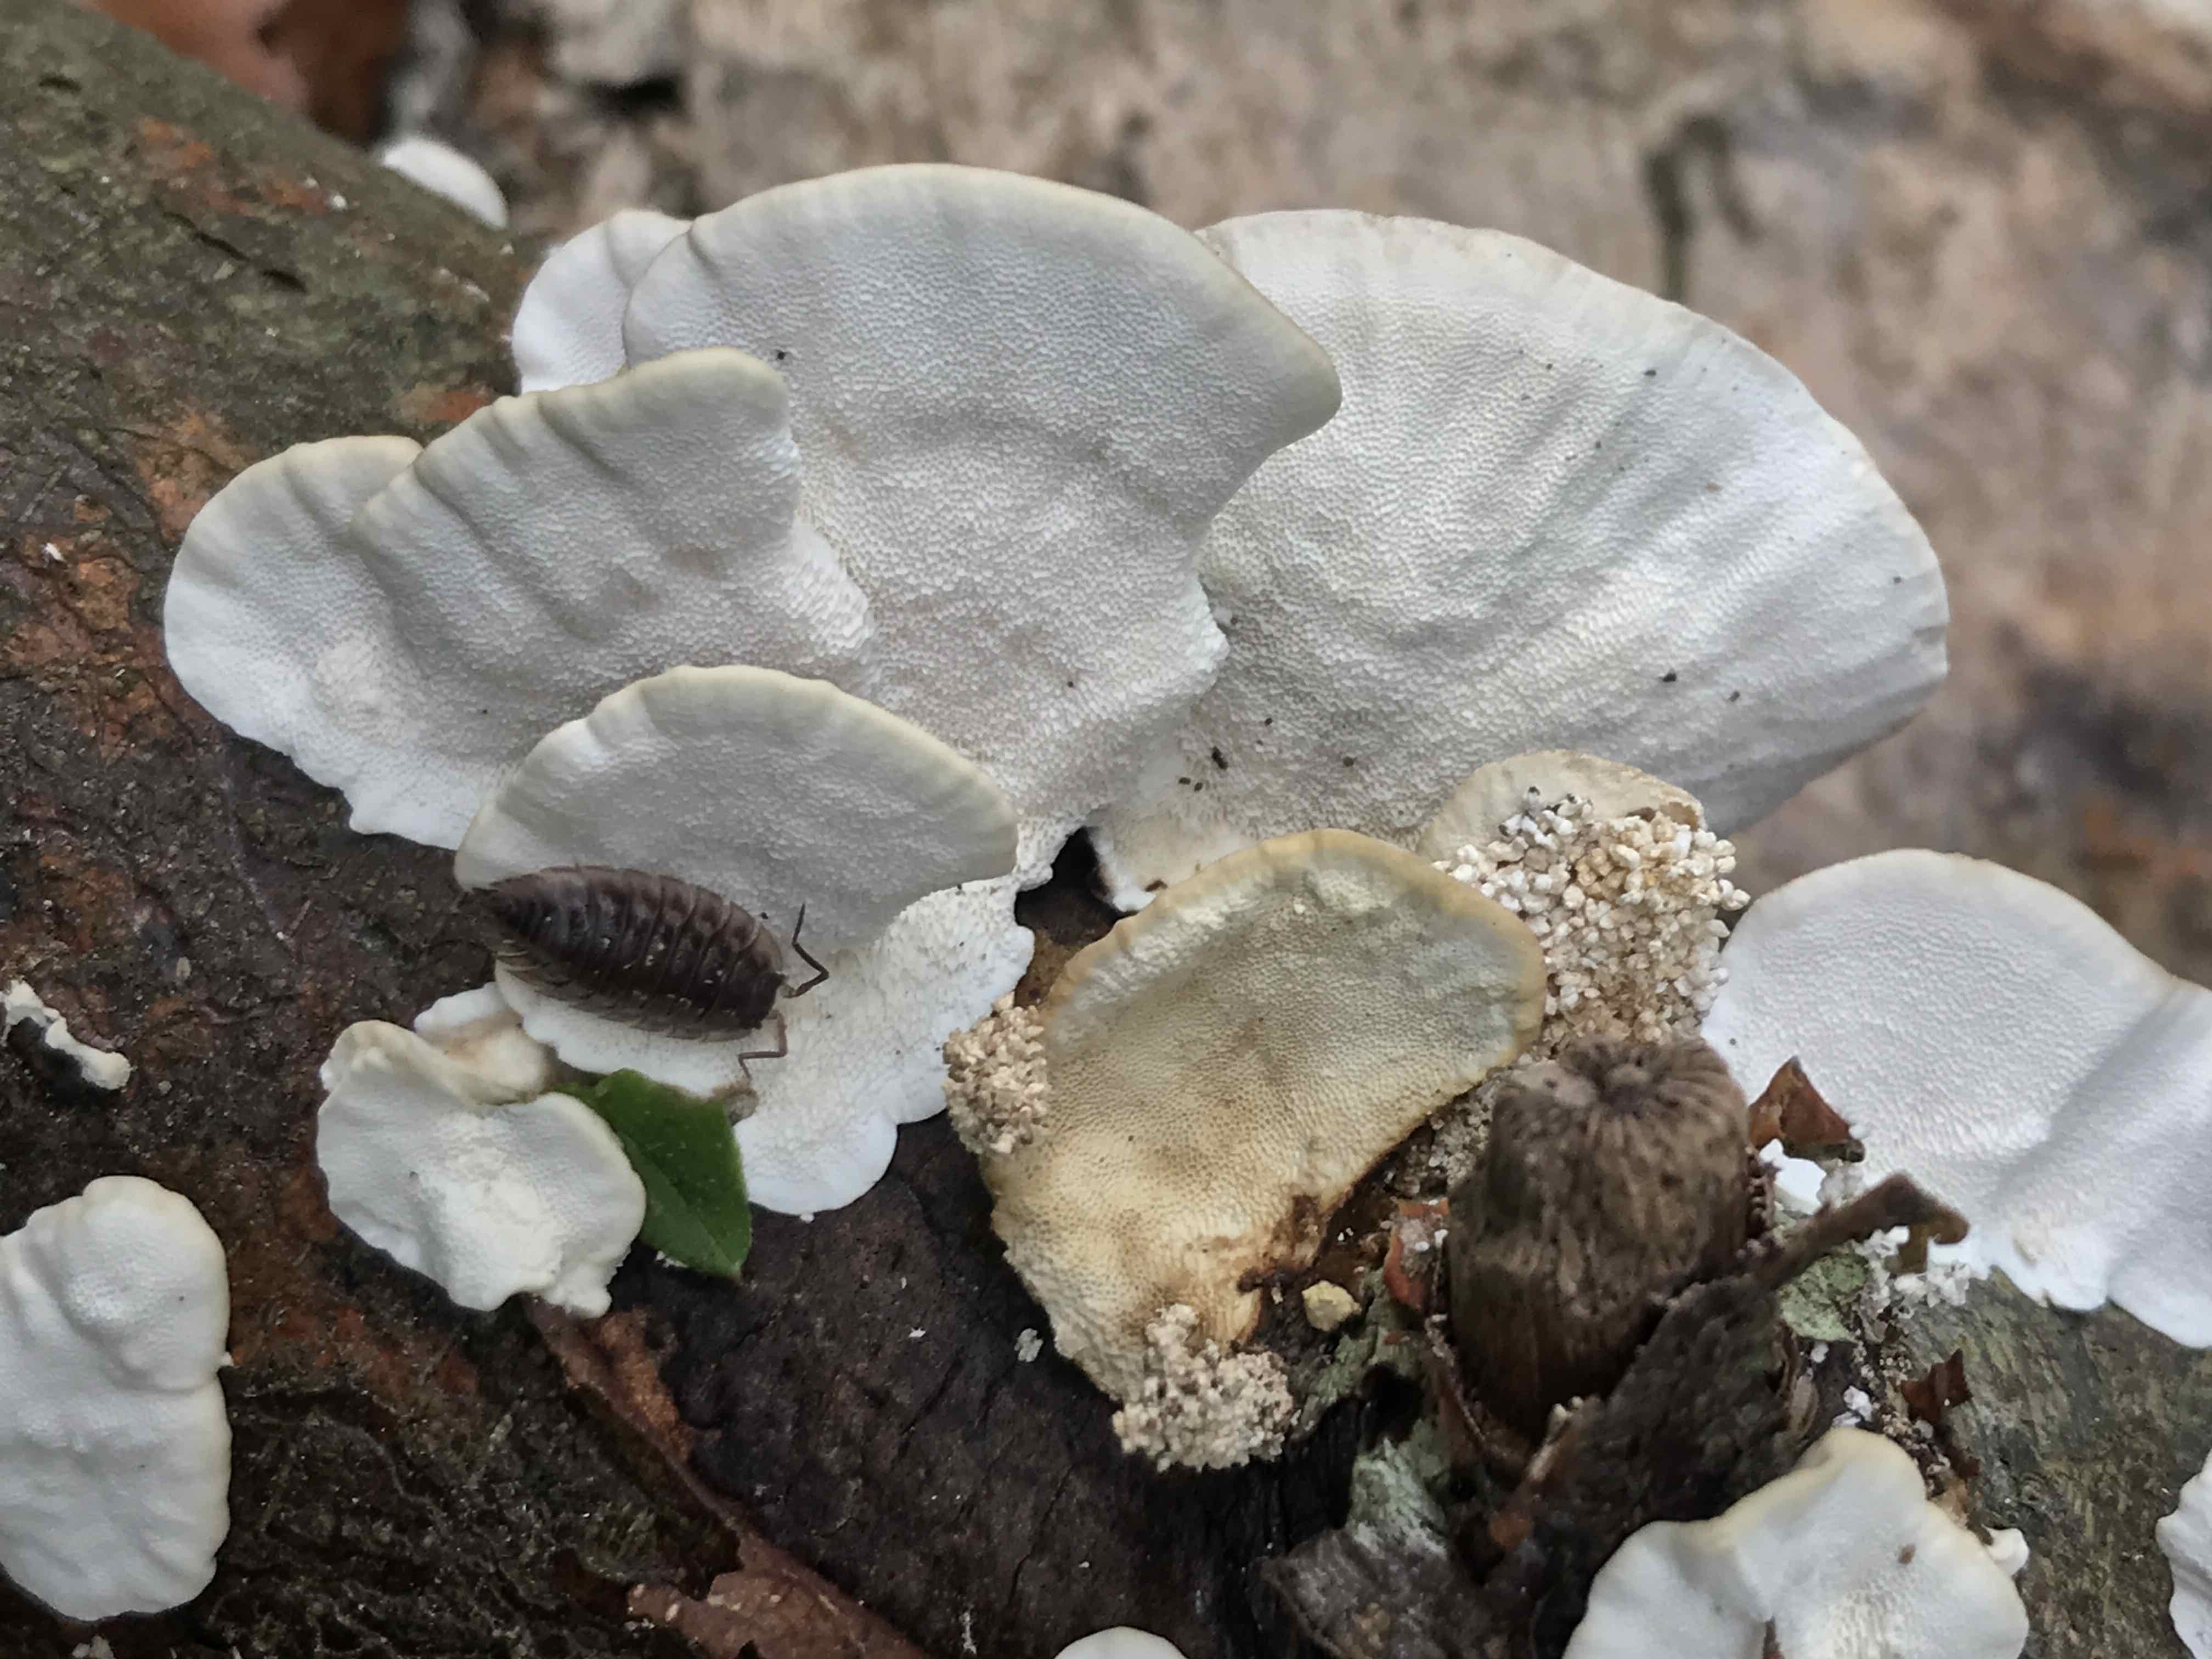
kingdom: Fungi
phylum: Basidiomycota
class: Agaricomycetes
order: Polyporales
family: Polyporaceae
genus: Trametes
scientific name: Trametes versicolor
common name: broget læderporesvamp
